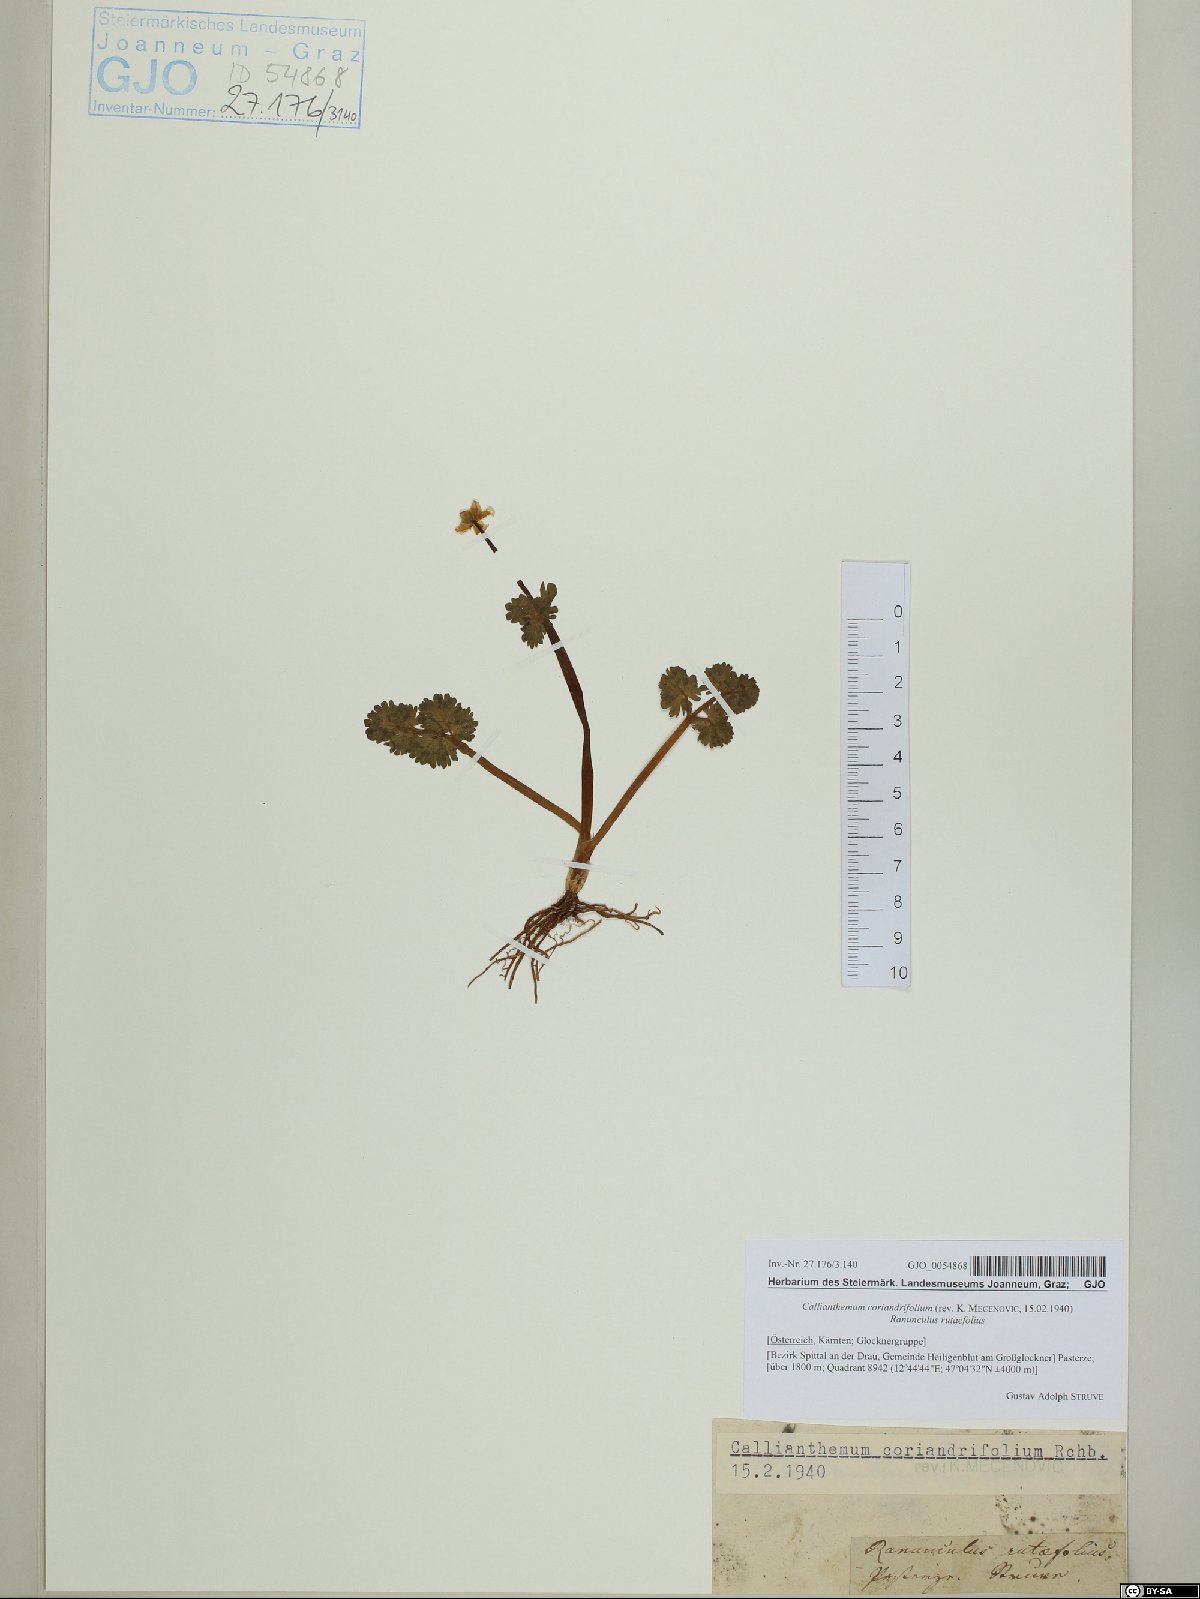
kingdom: Plantae
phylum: Tracheophyta
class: Magnoliopsida
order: Ranunculales
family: Ranunculaceae
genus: Callianthemum
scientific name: Callianthemum coriandrifolium
